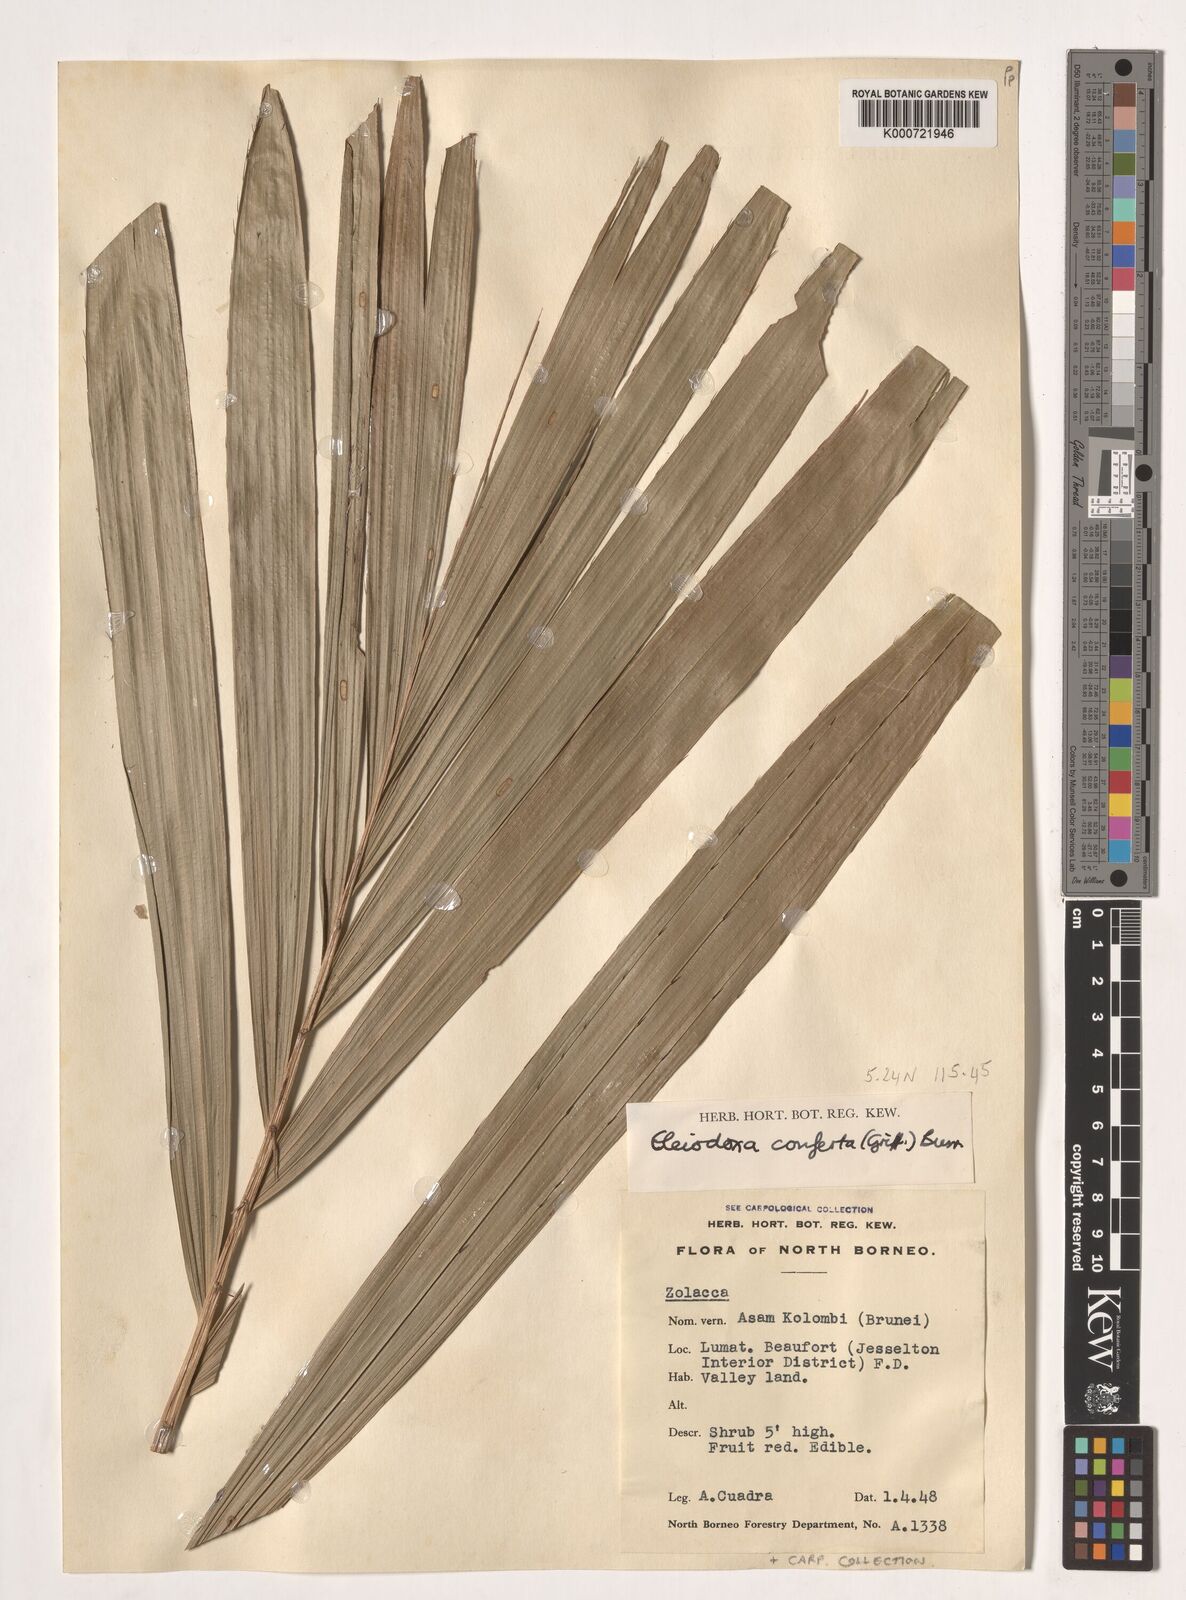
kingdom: Plantae
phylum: Tracheophyta
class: Liliopsida
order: Arecales
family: Arecaceae
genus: Eleiodoxa
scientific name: Eleiodoxa conferta
